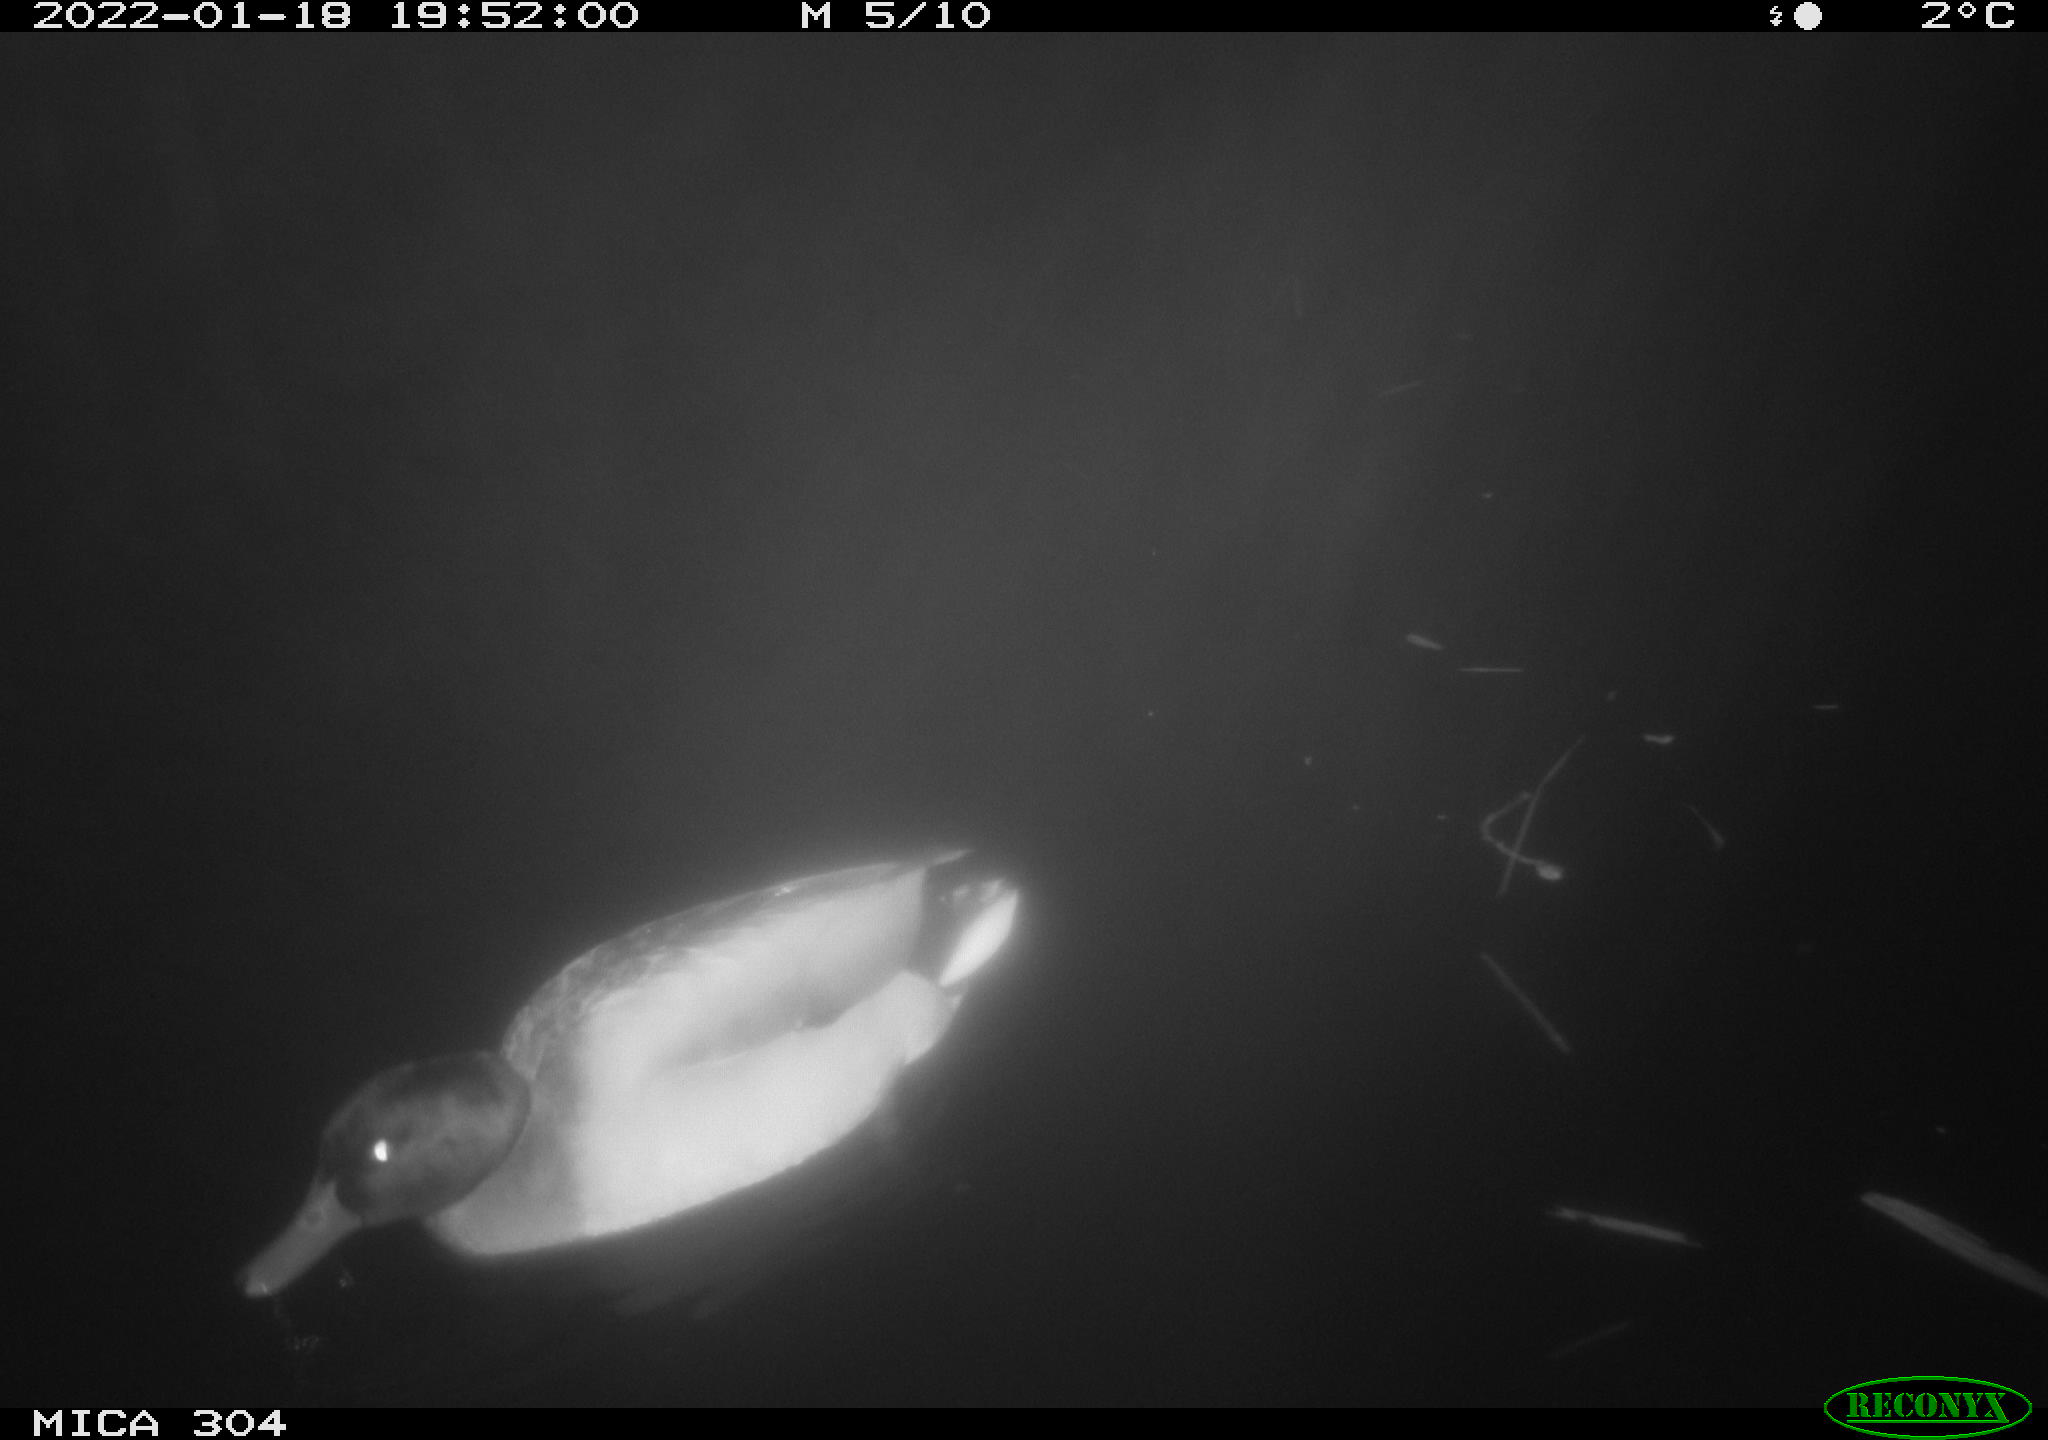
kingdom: Animalia
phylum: Chordata
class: Aves
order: Anseriformes
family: Anatidae
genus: Anas
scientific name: Anas
